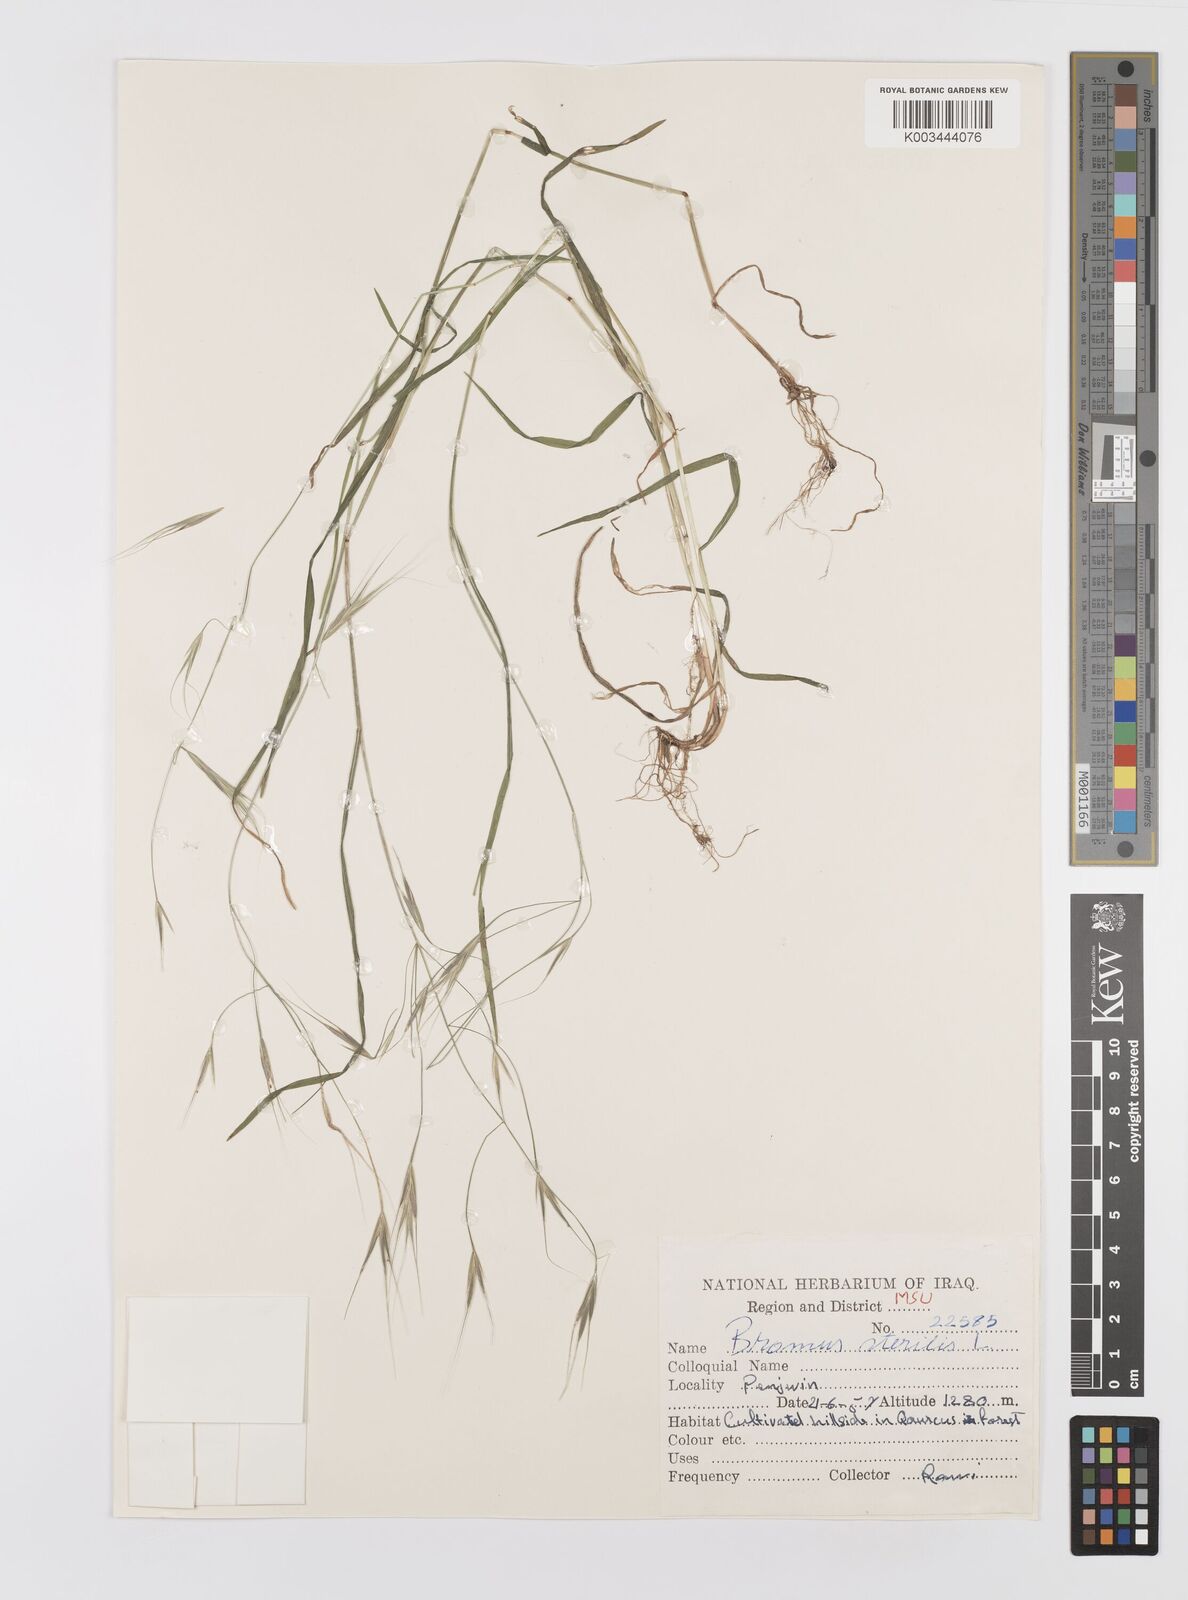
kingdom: Plantae
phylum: Tracheophyta
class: Liliopsida
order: Poales
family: Poaceae
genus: Bromus
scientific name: Bromus sterilis
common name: Poverty brome
